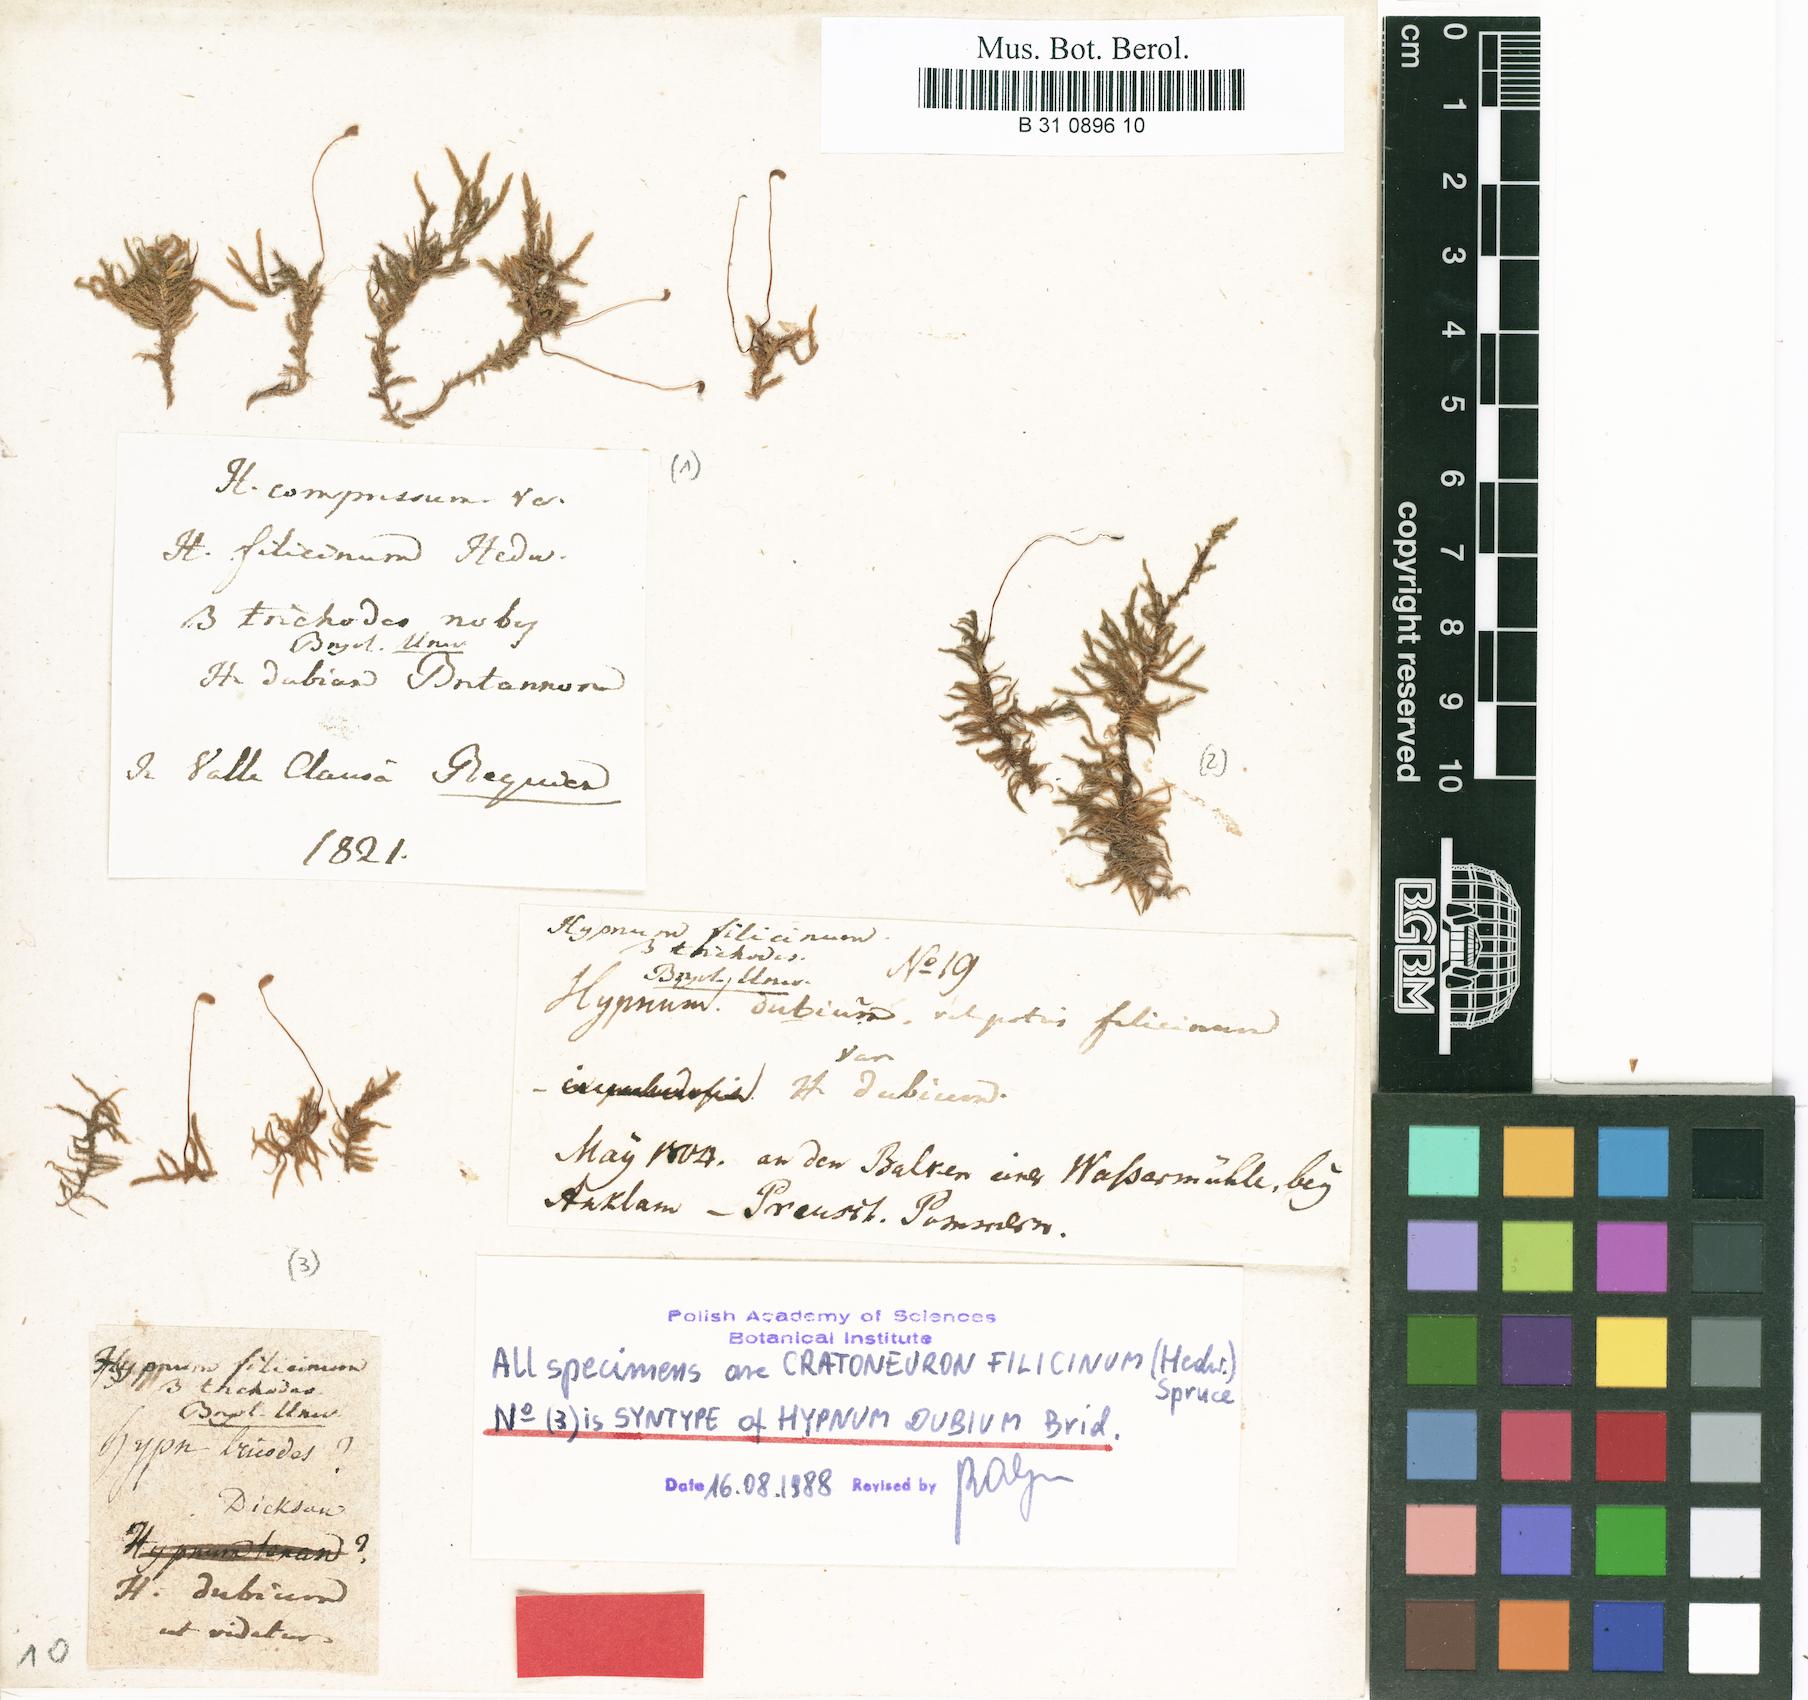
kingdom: Plantae
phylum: Bryophyta
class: Bryopsida
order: Hypnales
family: Amblystegiaceae
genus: Cratoneuron
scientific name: Cratoneuron filicinum
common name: Fern-leaved hook moss
